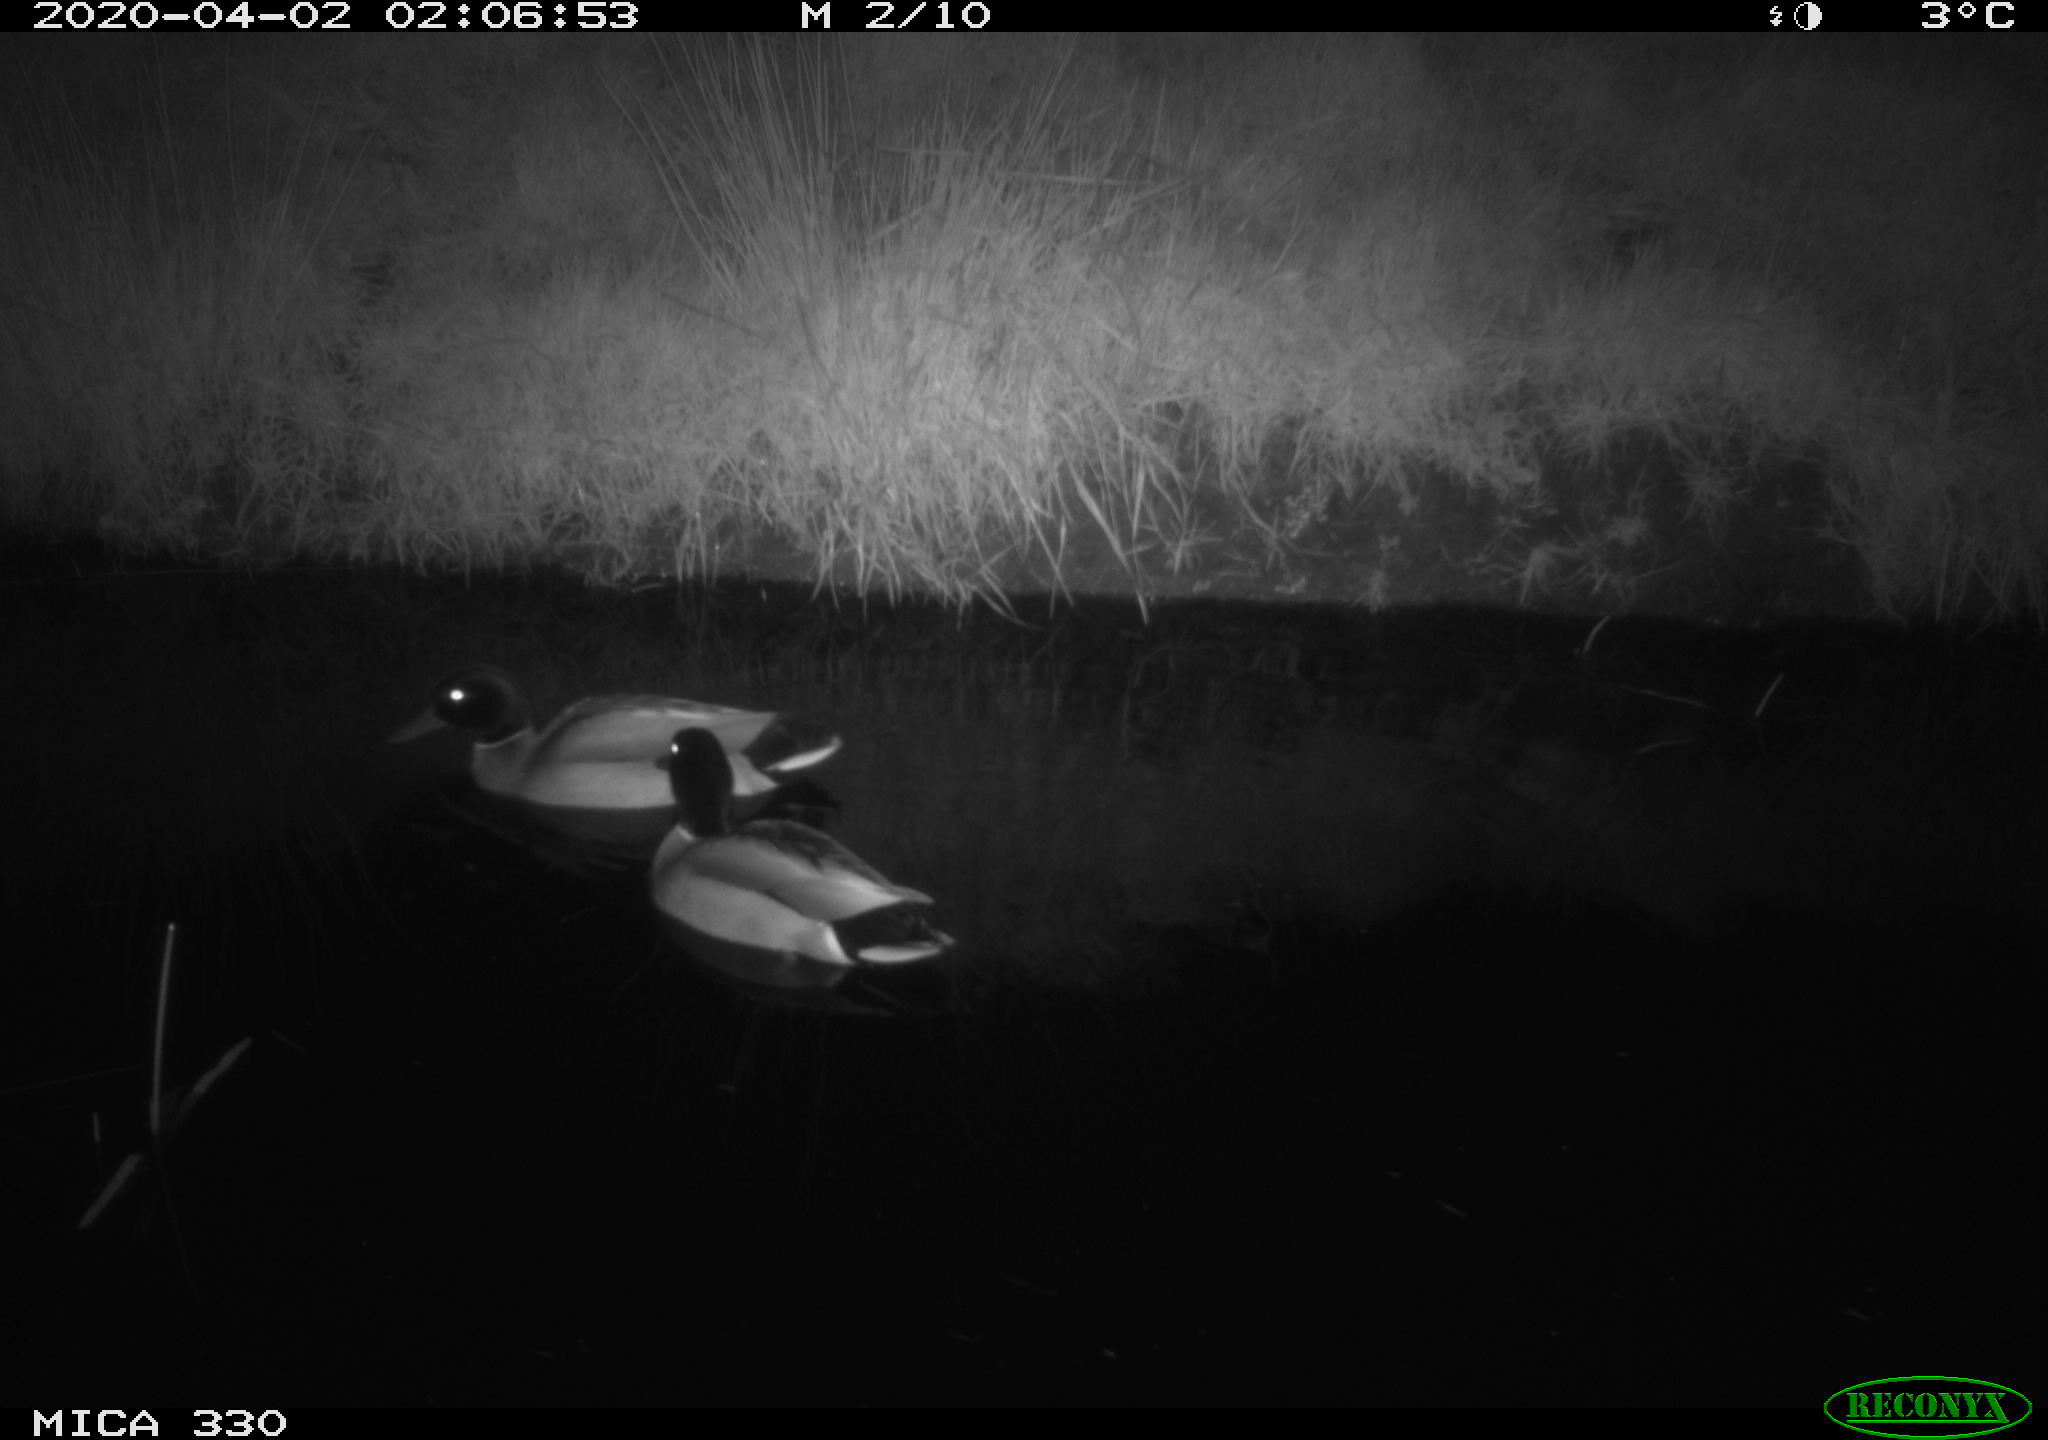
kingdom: Animalia
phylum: Chordata
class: Aves
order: Anseriformes
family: Anatidae
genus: Anas
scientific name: Anas platyrhynchos
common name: Mallard
